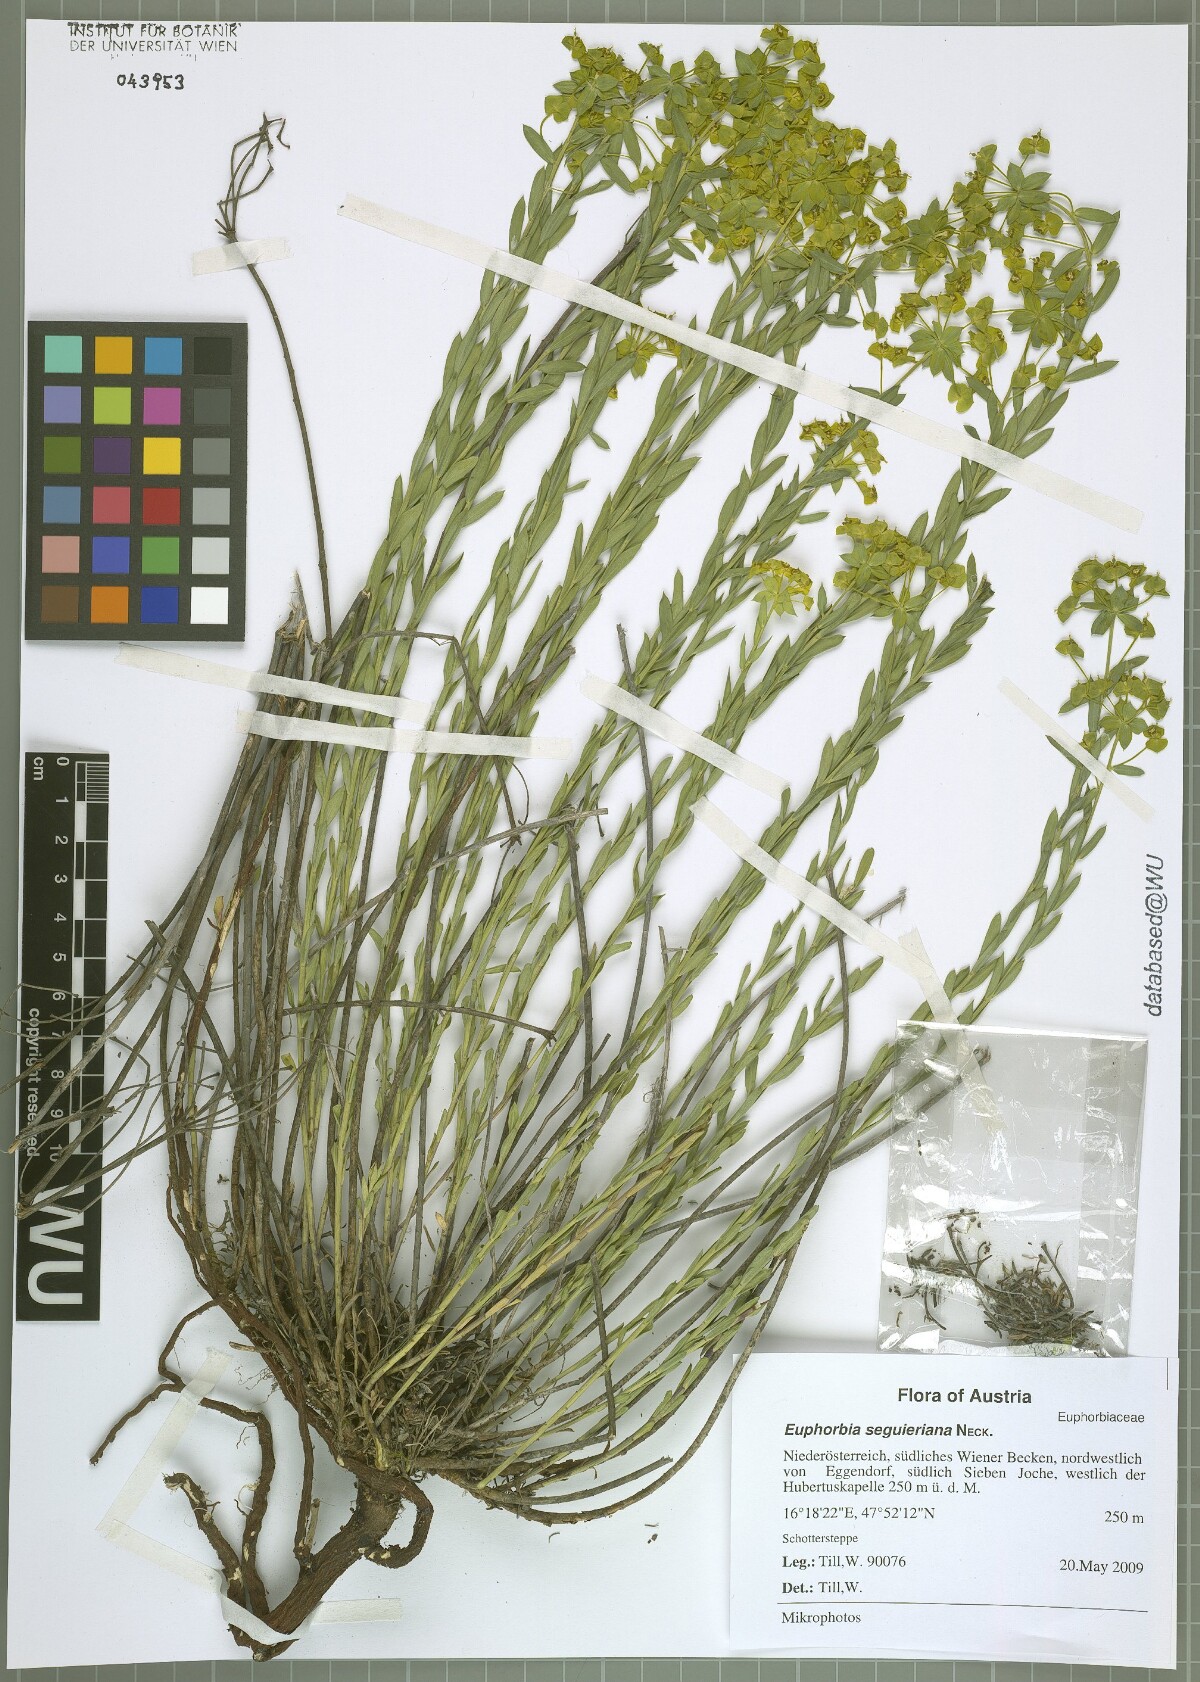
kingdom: Plantae
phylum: Tracheophyta
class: Magnoliopsida
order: Malpighiales
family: Euphorbiaceae
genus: Euphorbia
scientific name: Euphorbia seguieriana
